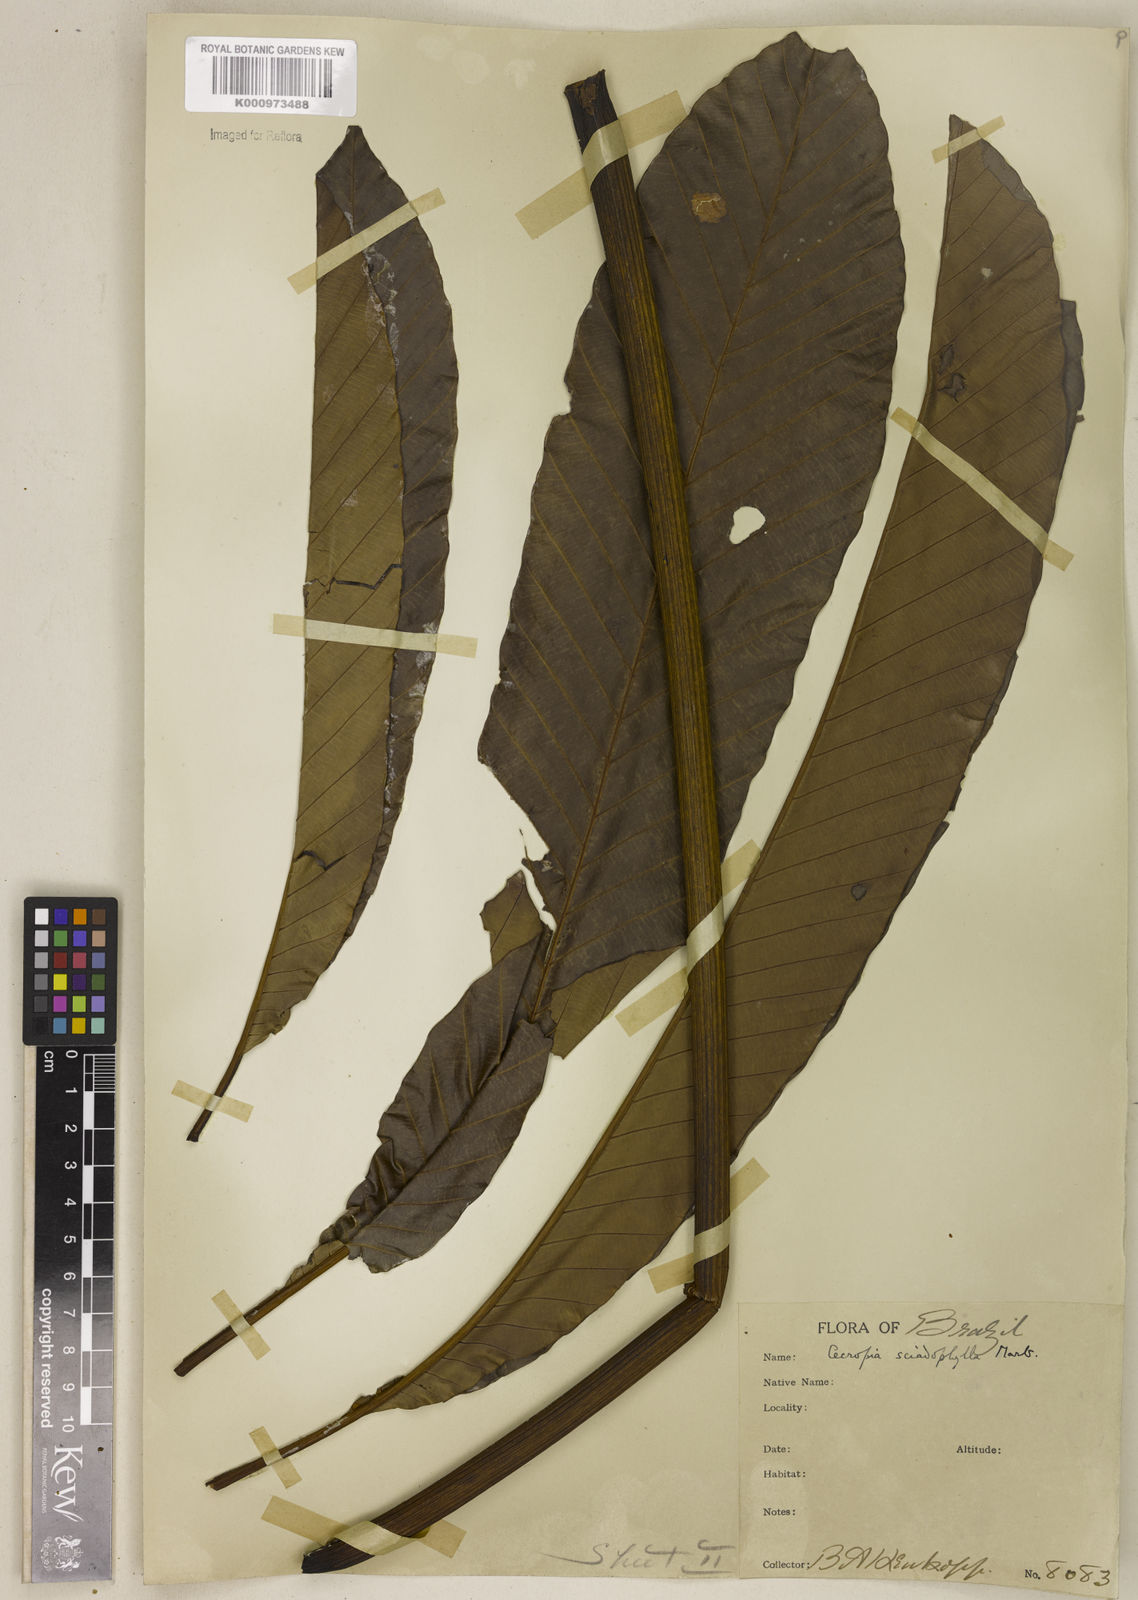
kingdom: Plantae
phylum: Tracheophyta
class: Magnoliopsida
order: Rosales
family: Urticaceae
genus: Cecropia
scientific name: Cecropia sciadophylla
